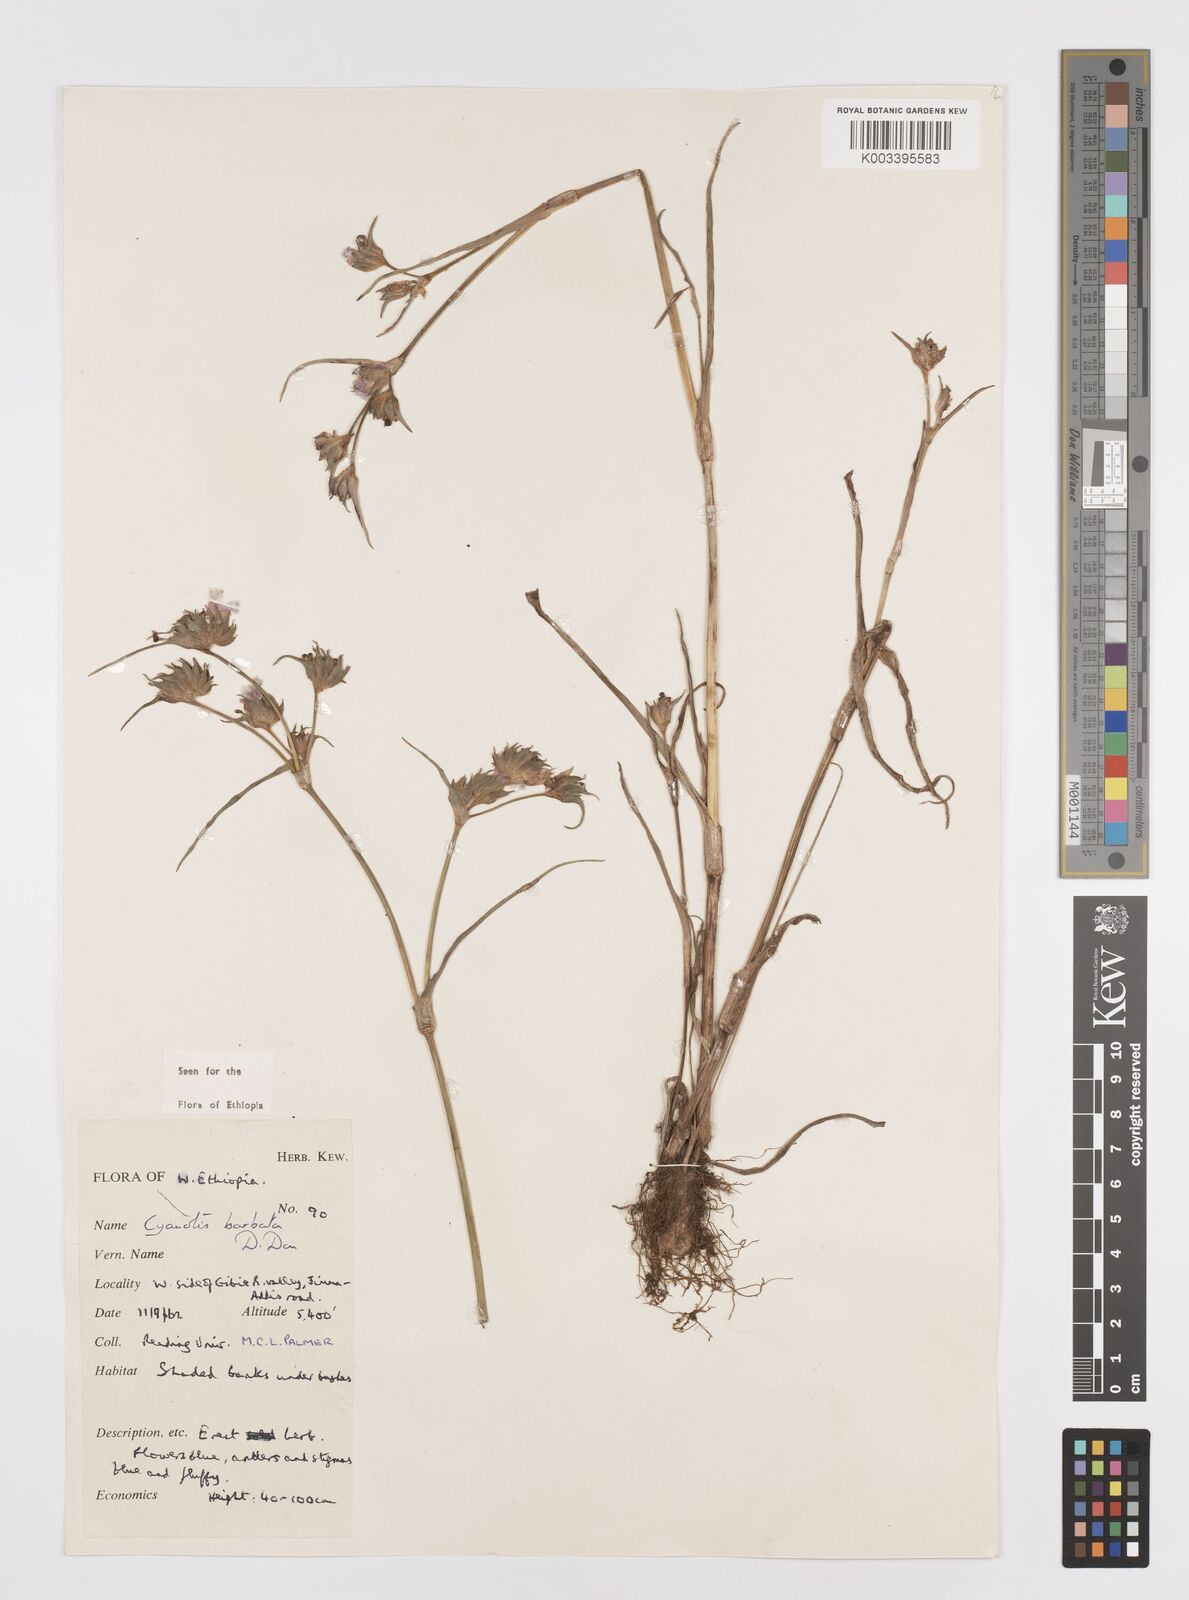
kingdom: Plantae
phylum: Tracheophyta
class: Liliopsida
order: Commelinales
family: Commelinaceae
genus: Cyanotis
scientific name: Cyanotis vaga
